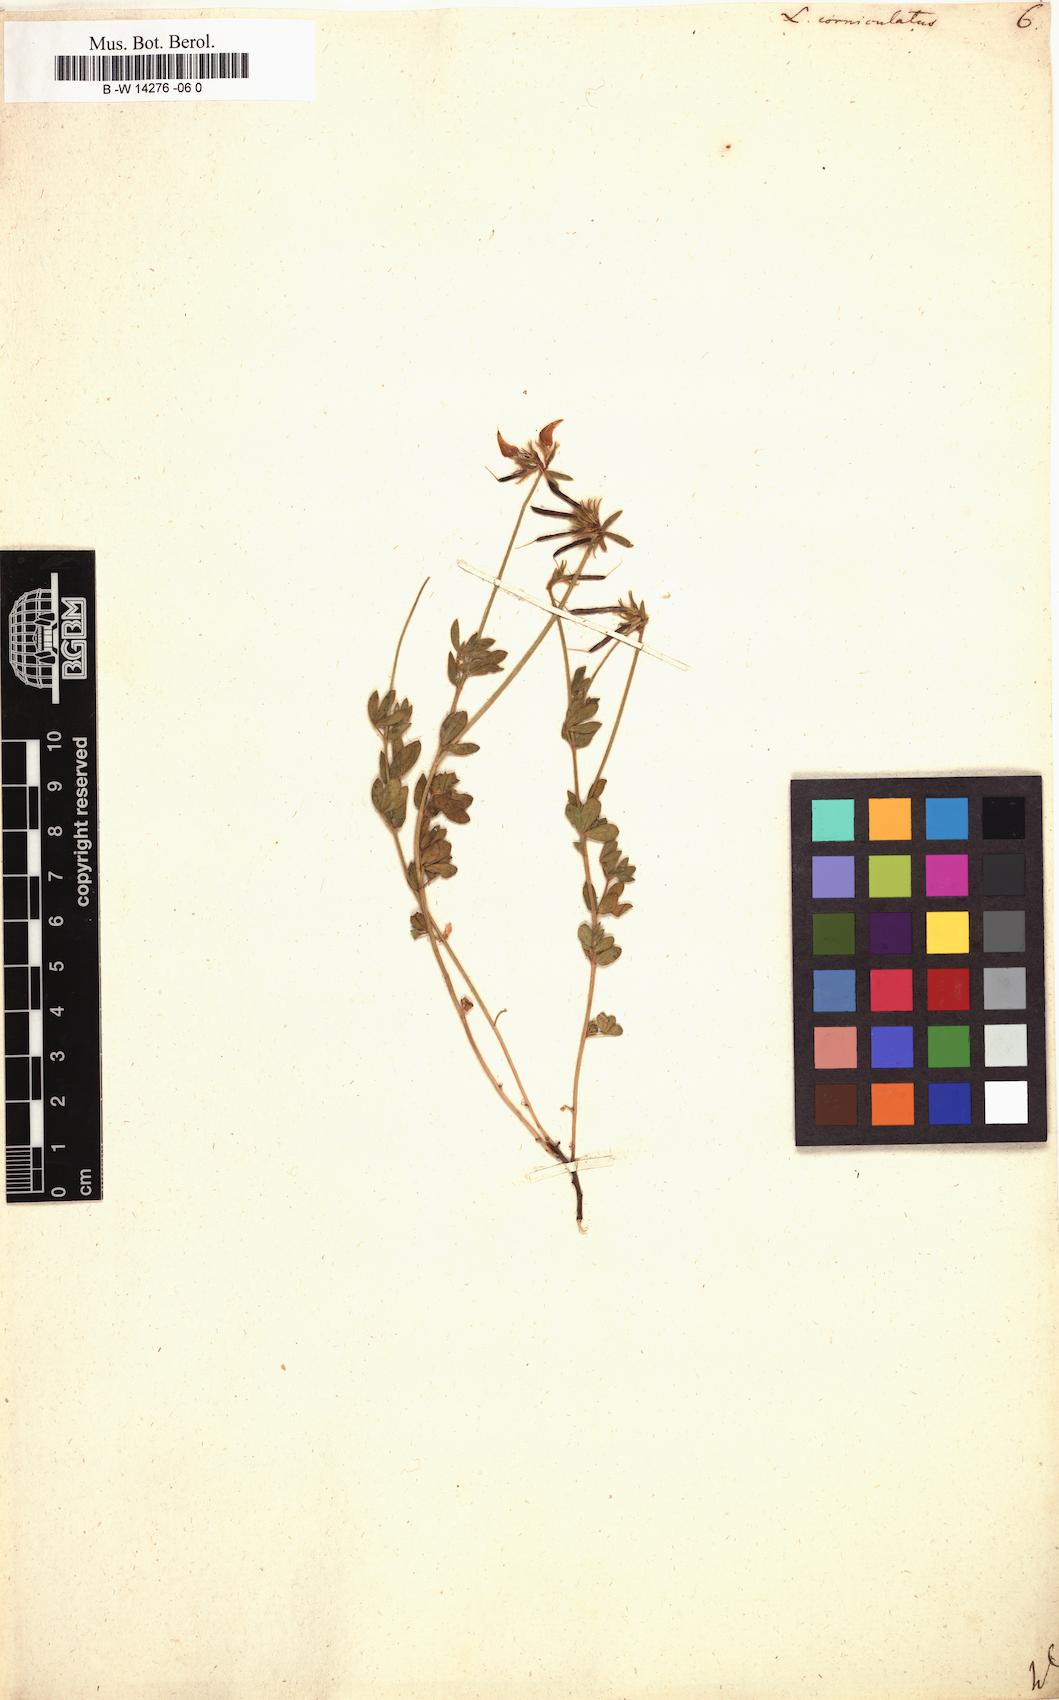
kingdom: Plantae
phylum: Tracheophyta
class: Magnoliopsida
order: Fabales
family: Fabaceae
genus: Lotus
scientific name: Lotus corniculatus
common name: Common bird's-foot-trefoil
